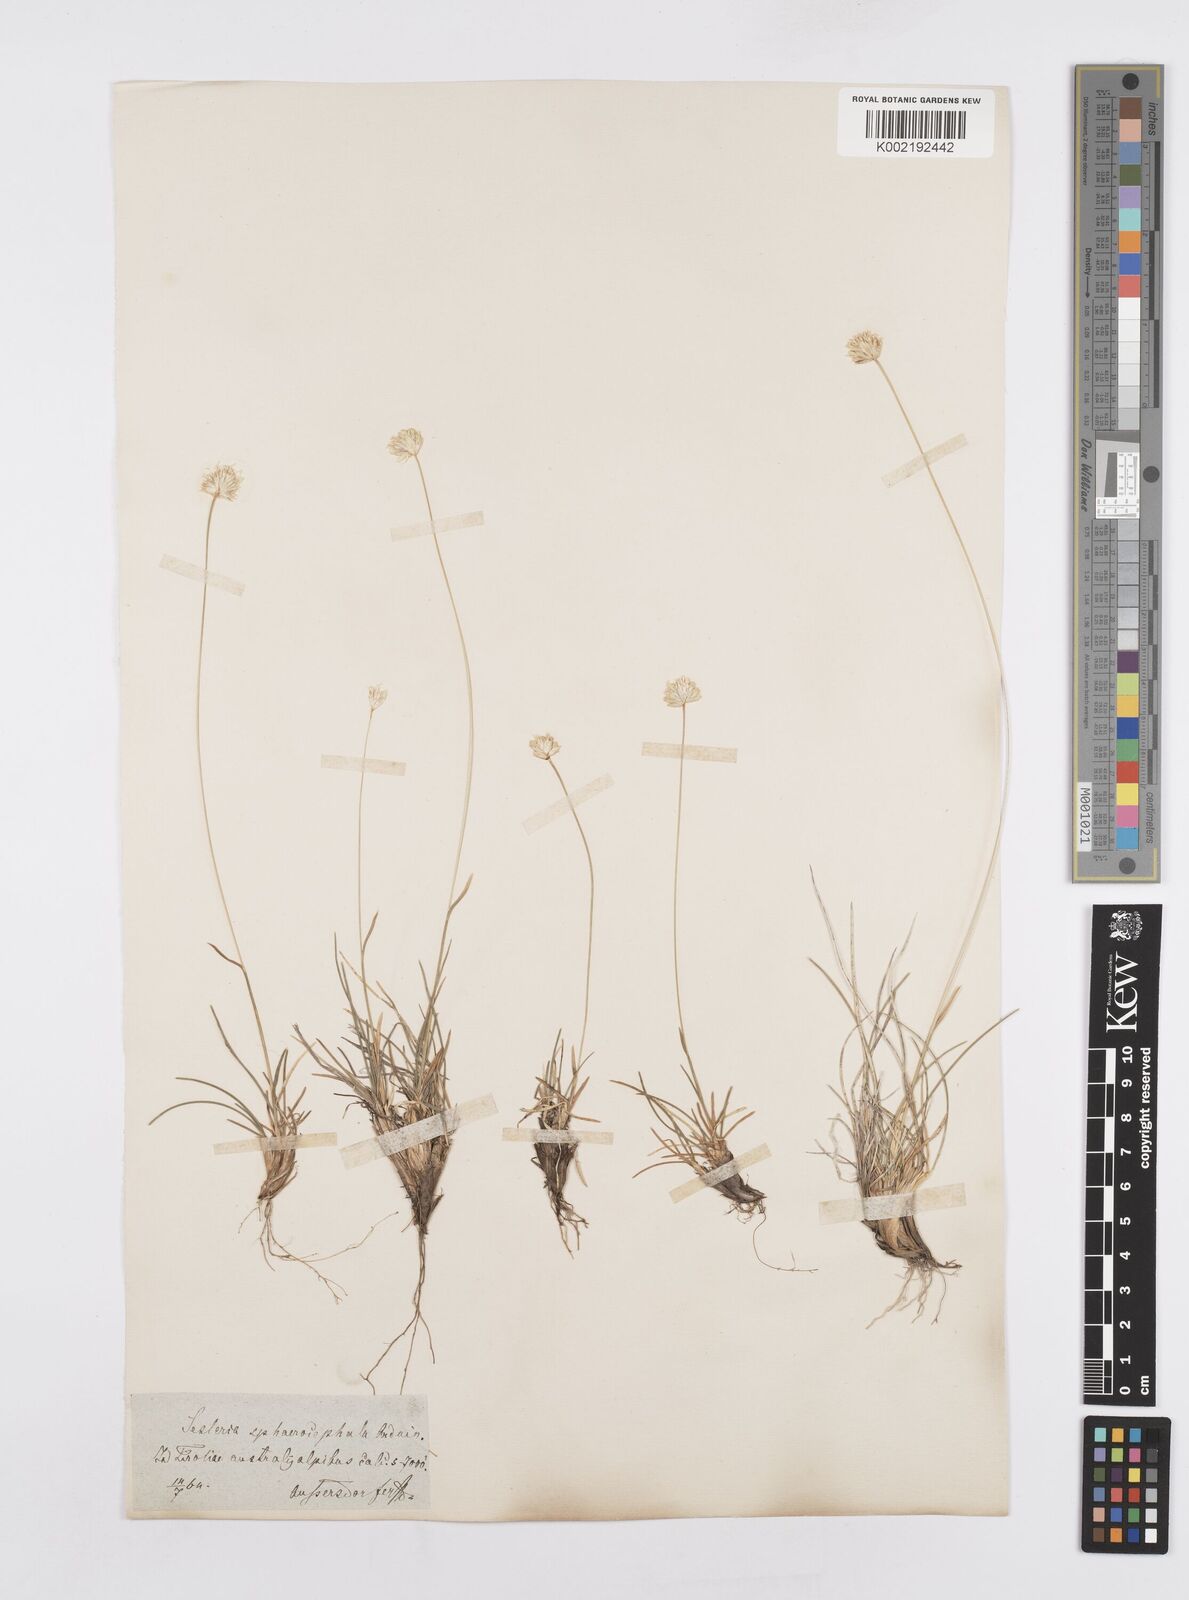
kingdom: Plantae
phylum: Tracheophyta
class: Liliopsida
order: Poales
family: Poaceae
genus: Sesleriella
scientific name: Sesleriella sphaerocephala
